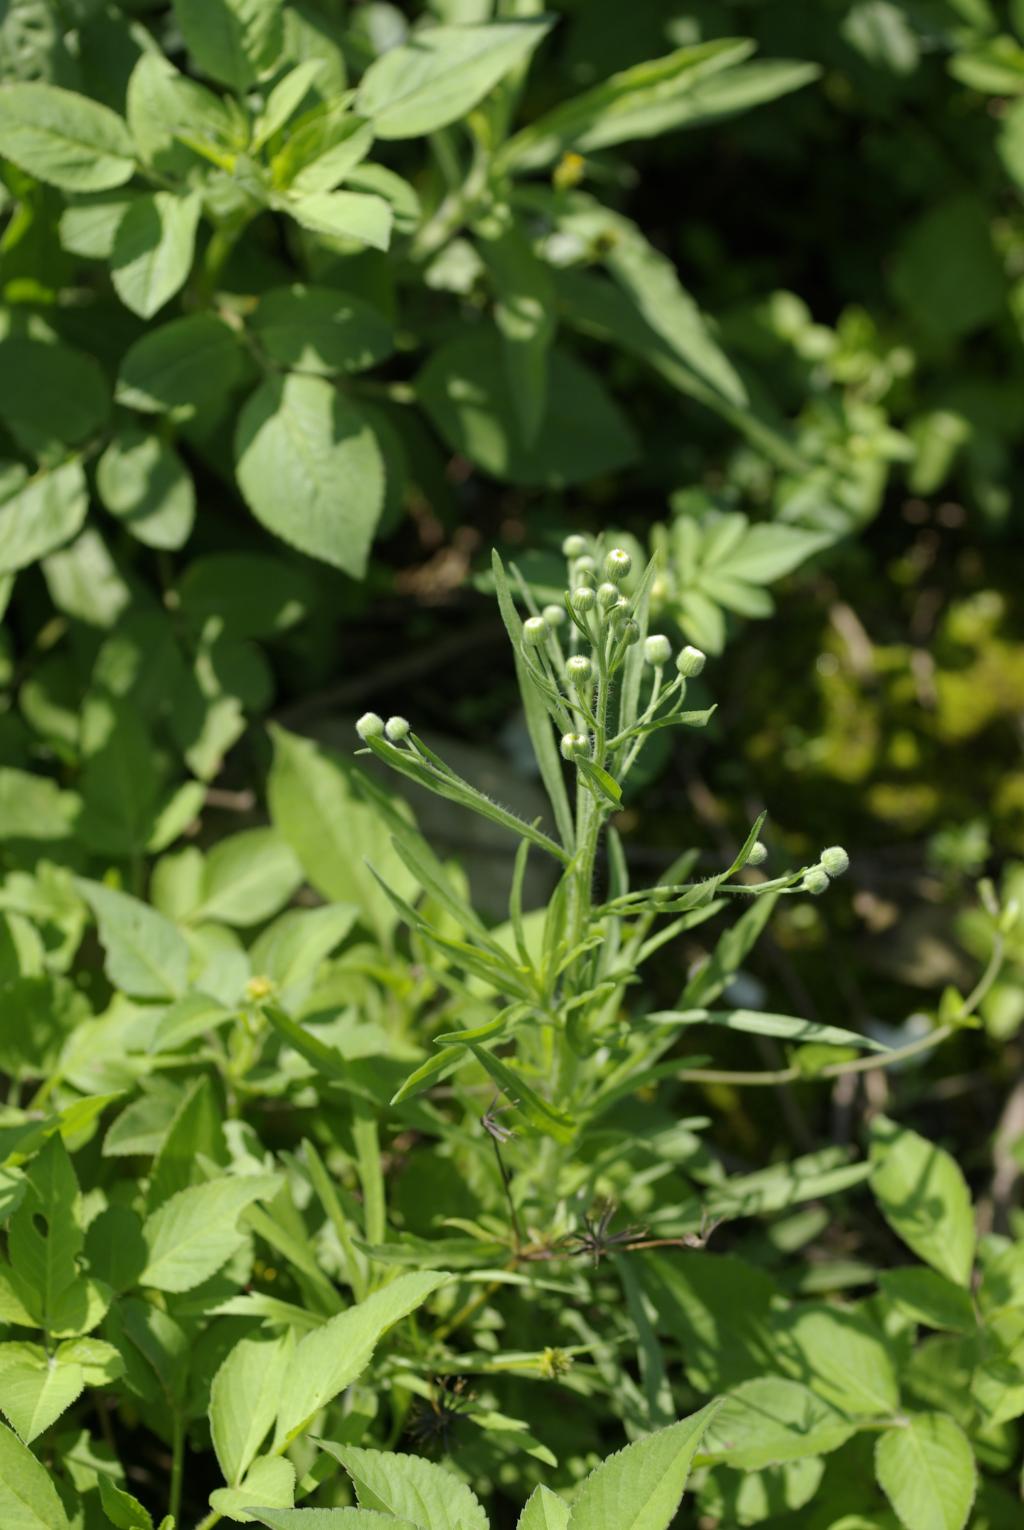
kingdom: Plantae
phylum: Tracheophyta
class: Magnoliopsida
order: Asterales
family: Asteraceae
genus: Erigeron
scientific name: Erigeron bonariensis
